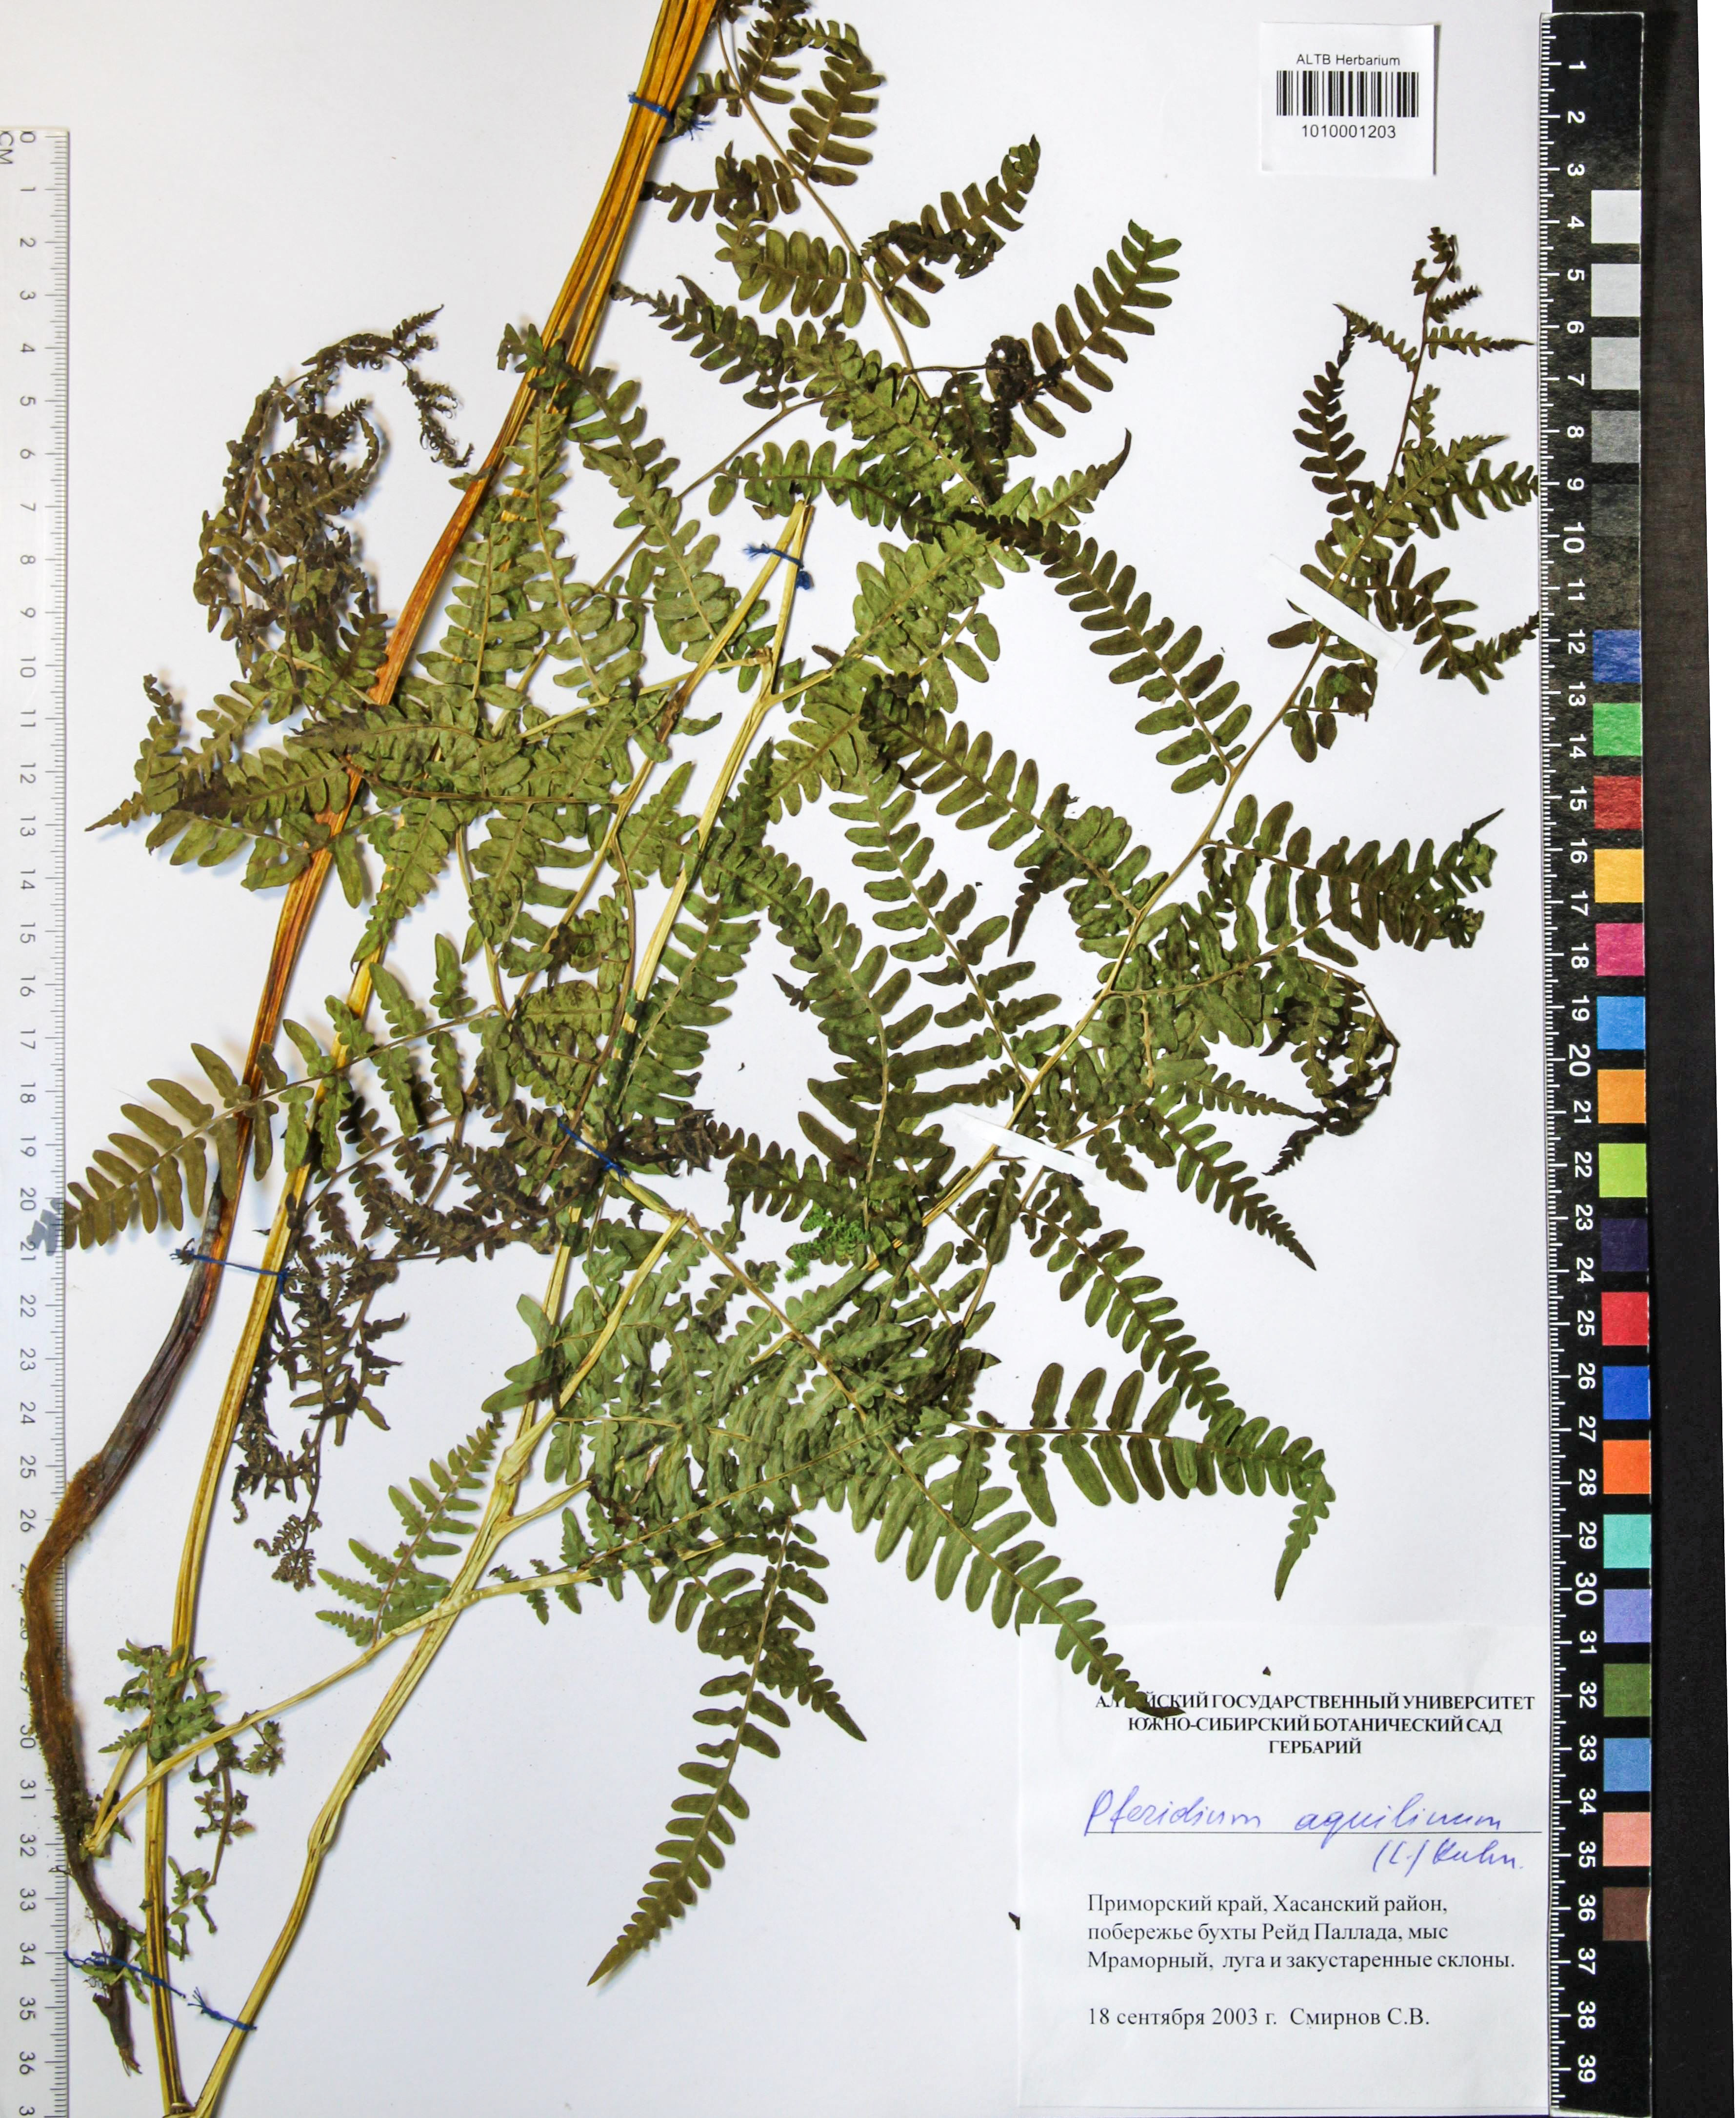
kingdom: Plantae
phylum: Tracheophyta
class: Polypodiopsida
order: Polypodiales
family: Dennstaedtiaceae
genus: Pteridium
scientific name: Pteridium aquilinum
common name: Bracken
